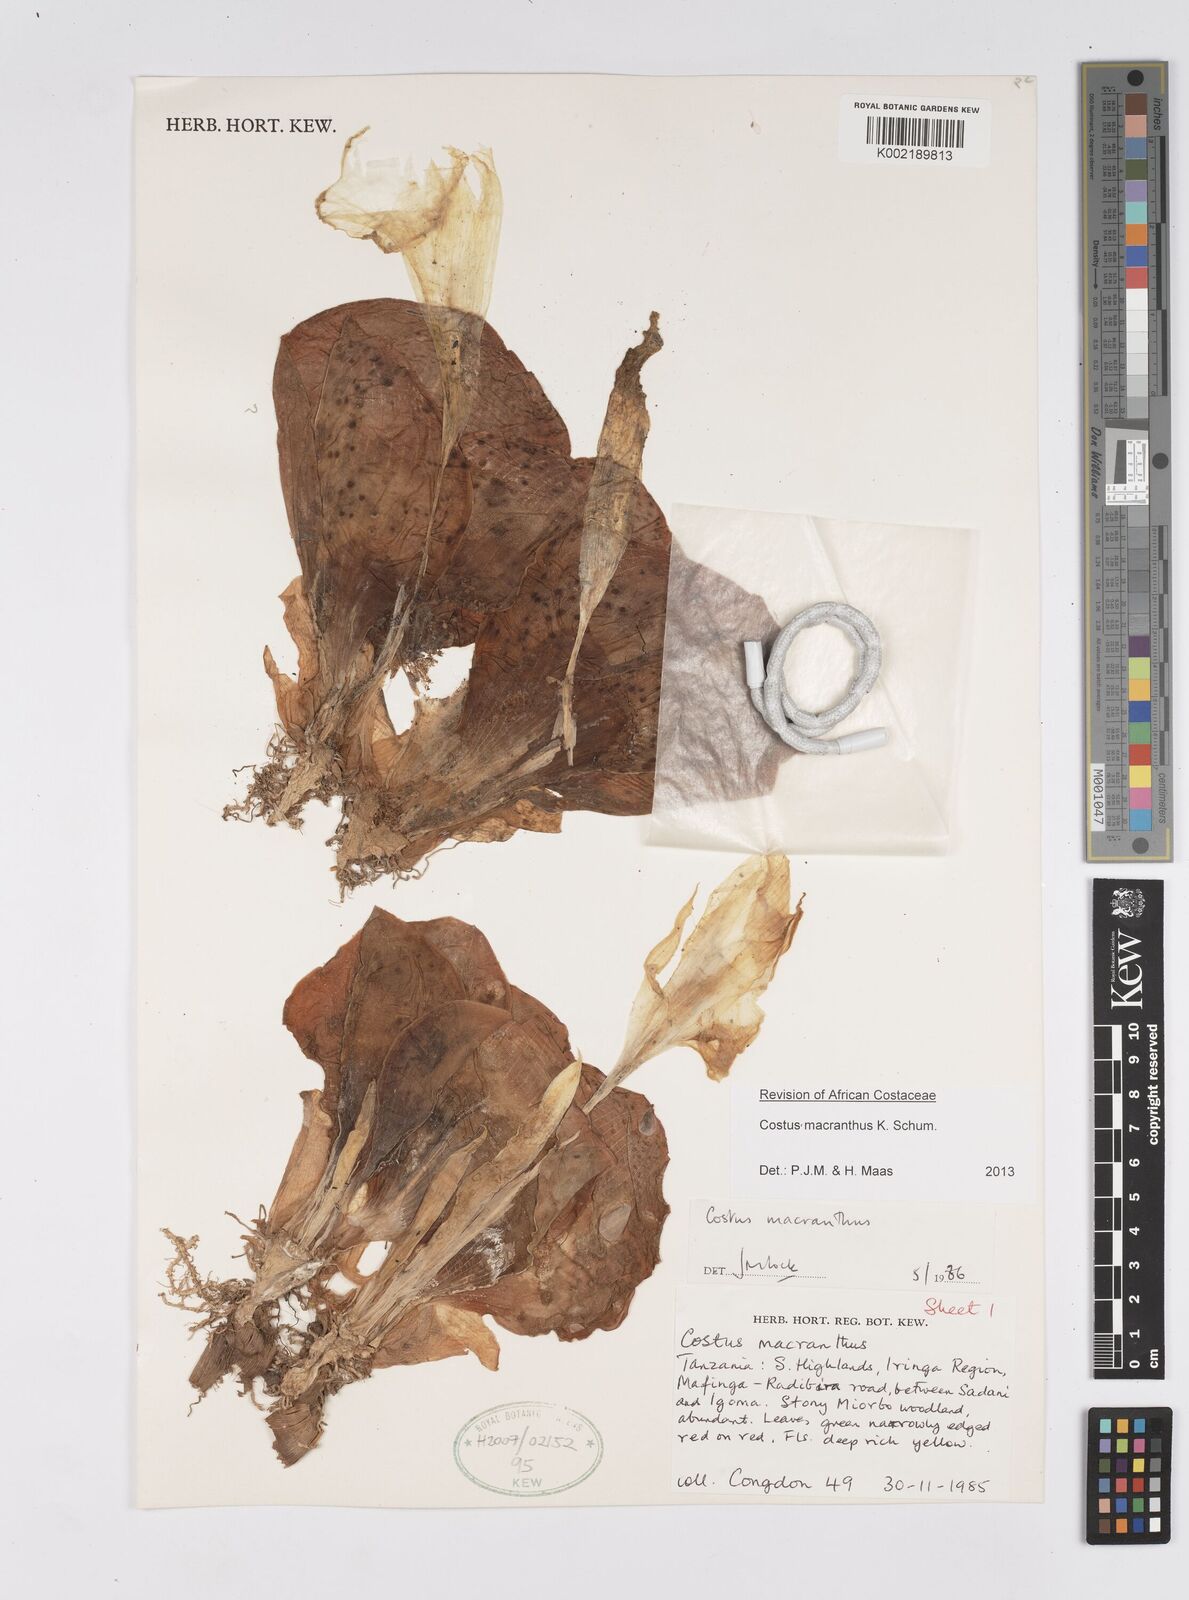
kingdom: Plantae
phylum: Tracheophyta
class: Liliopsida
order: Zingiberales
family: Costaceae
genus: Costus
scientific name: Costus macranthus
